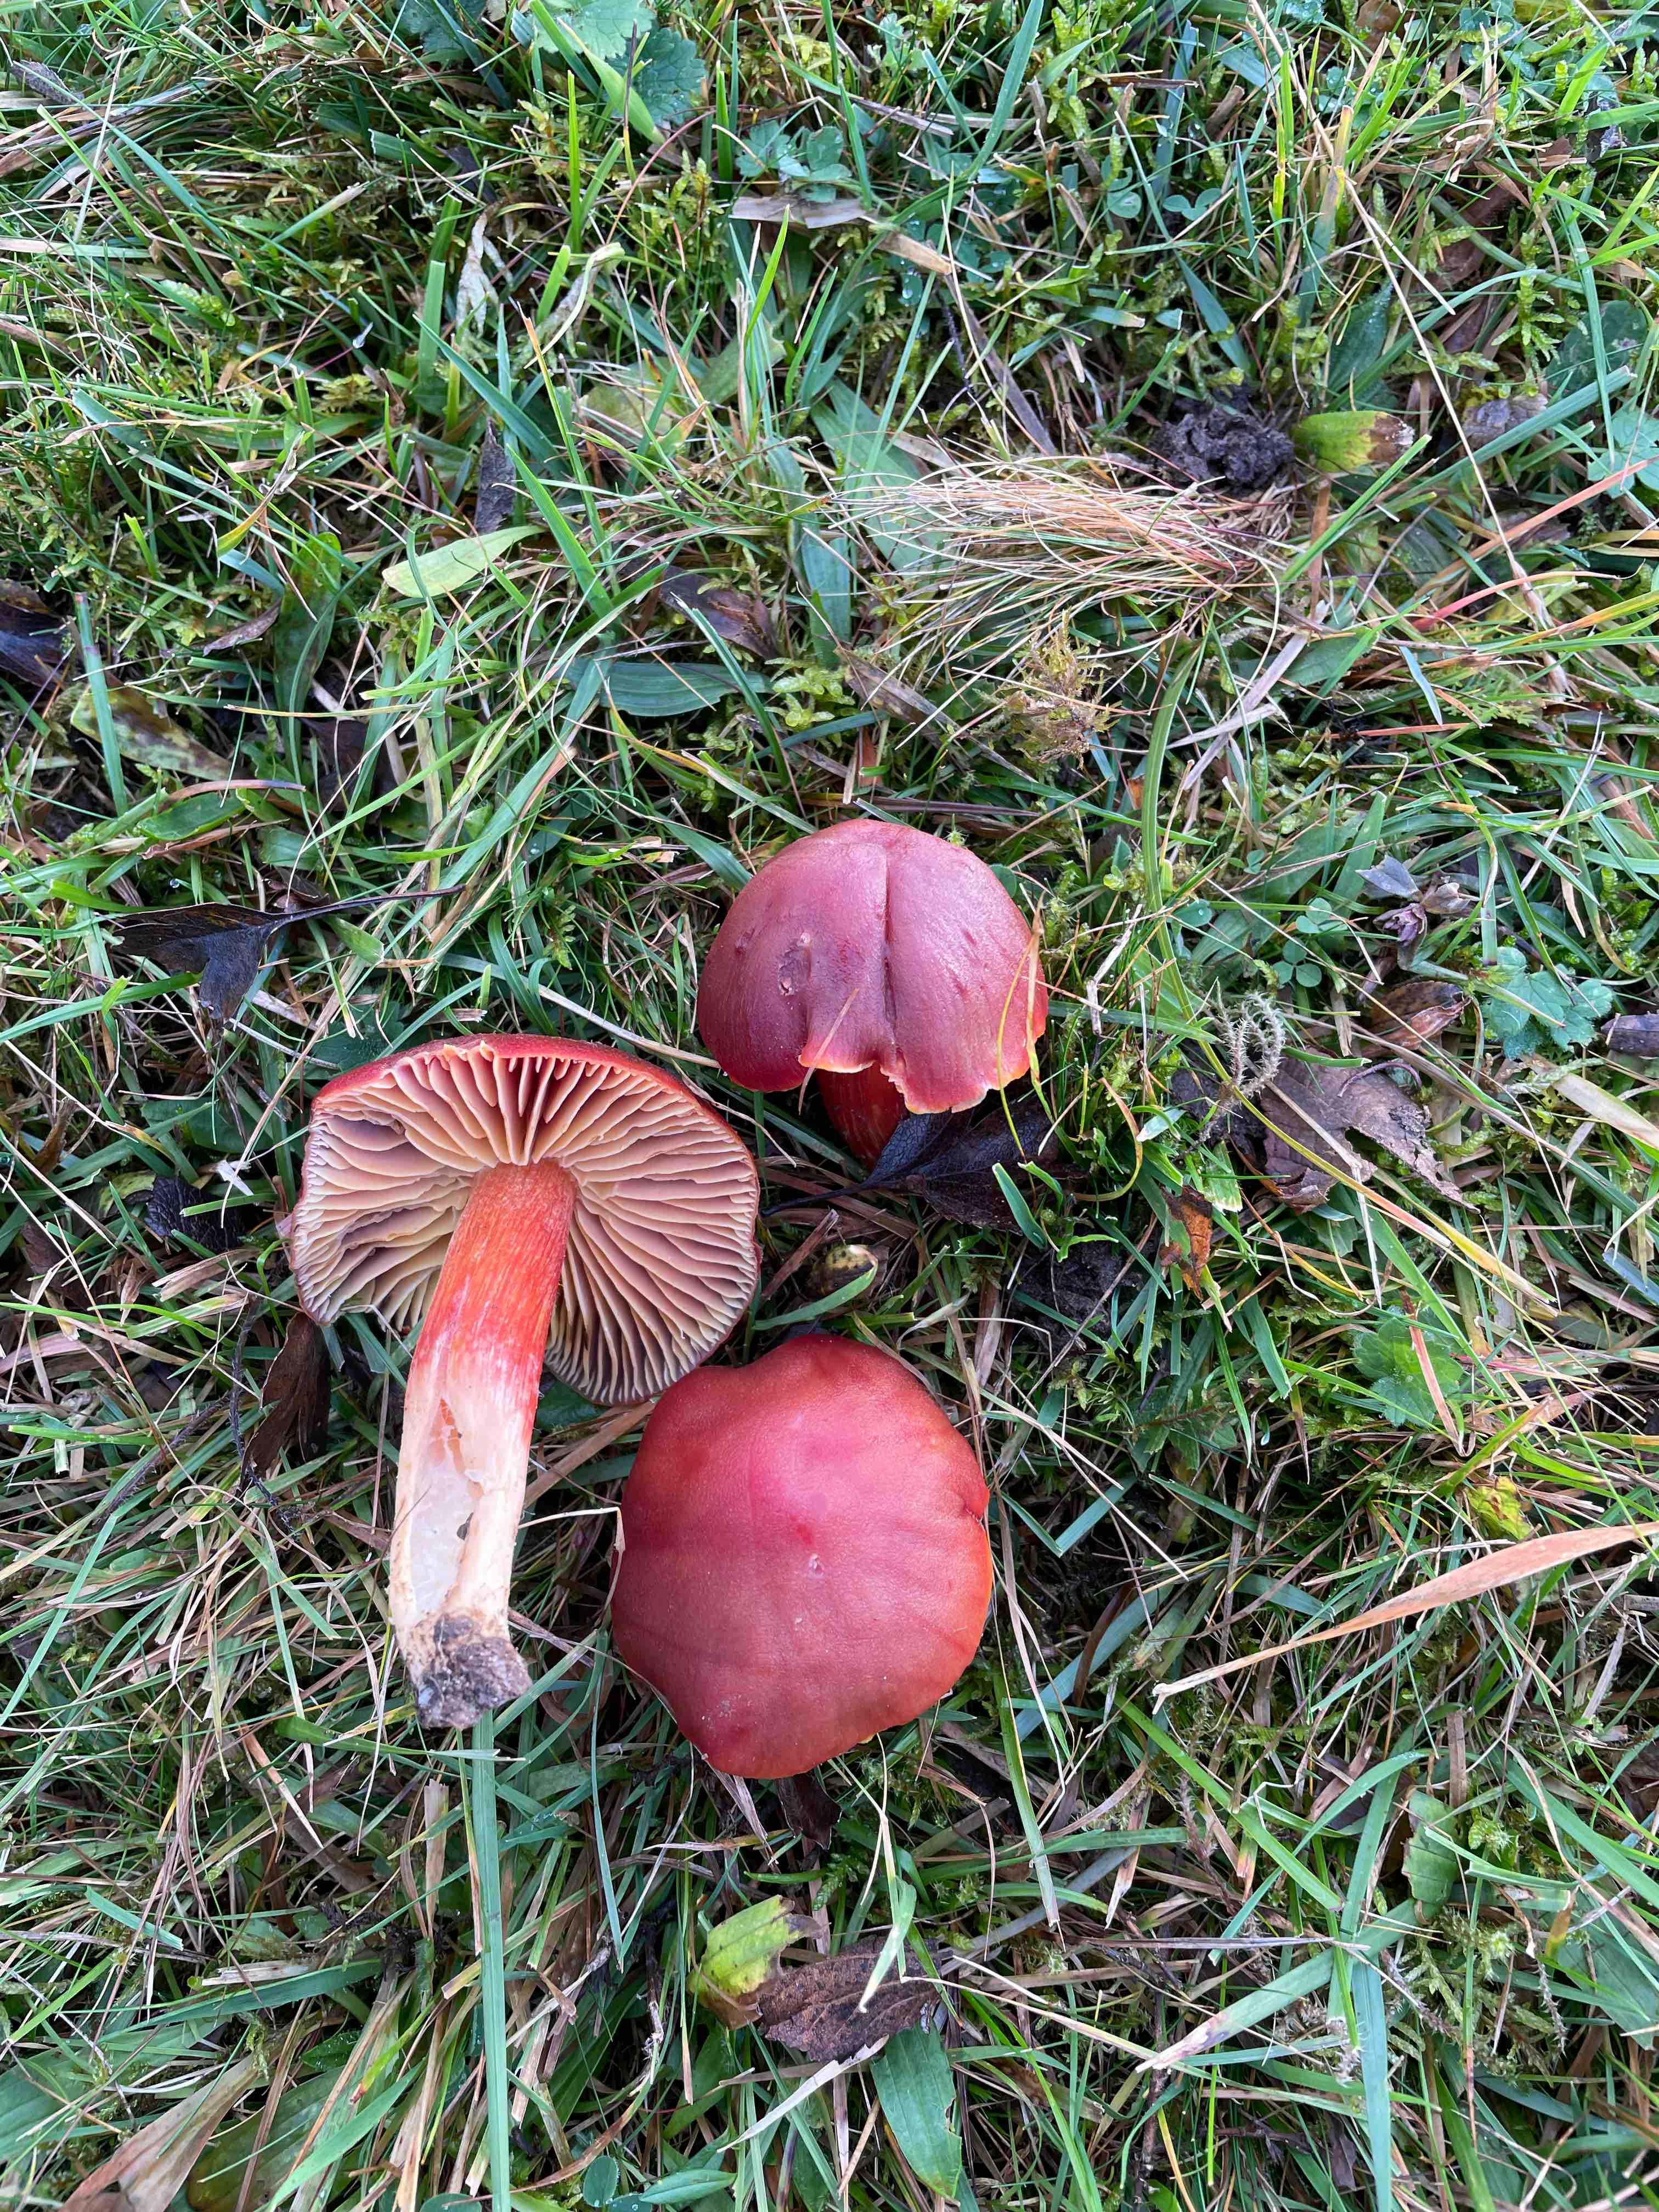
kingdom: Fungi
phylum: Basidiomycota
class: Agaricomycetes
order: Agaricales
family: Hygrophoraceae
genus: Hygrocybe
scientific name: Hygrocybe punicea
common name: skarlagen-vokshat
